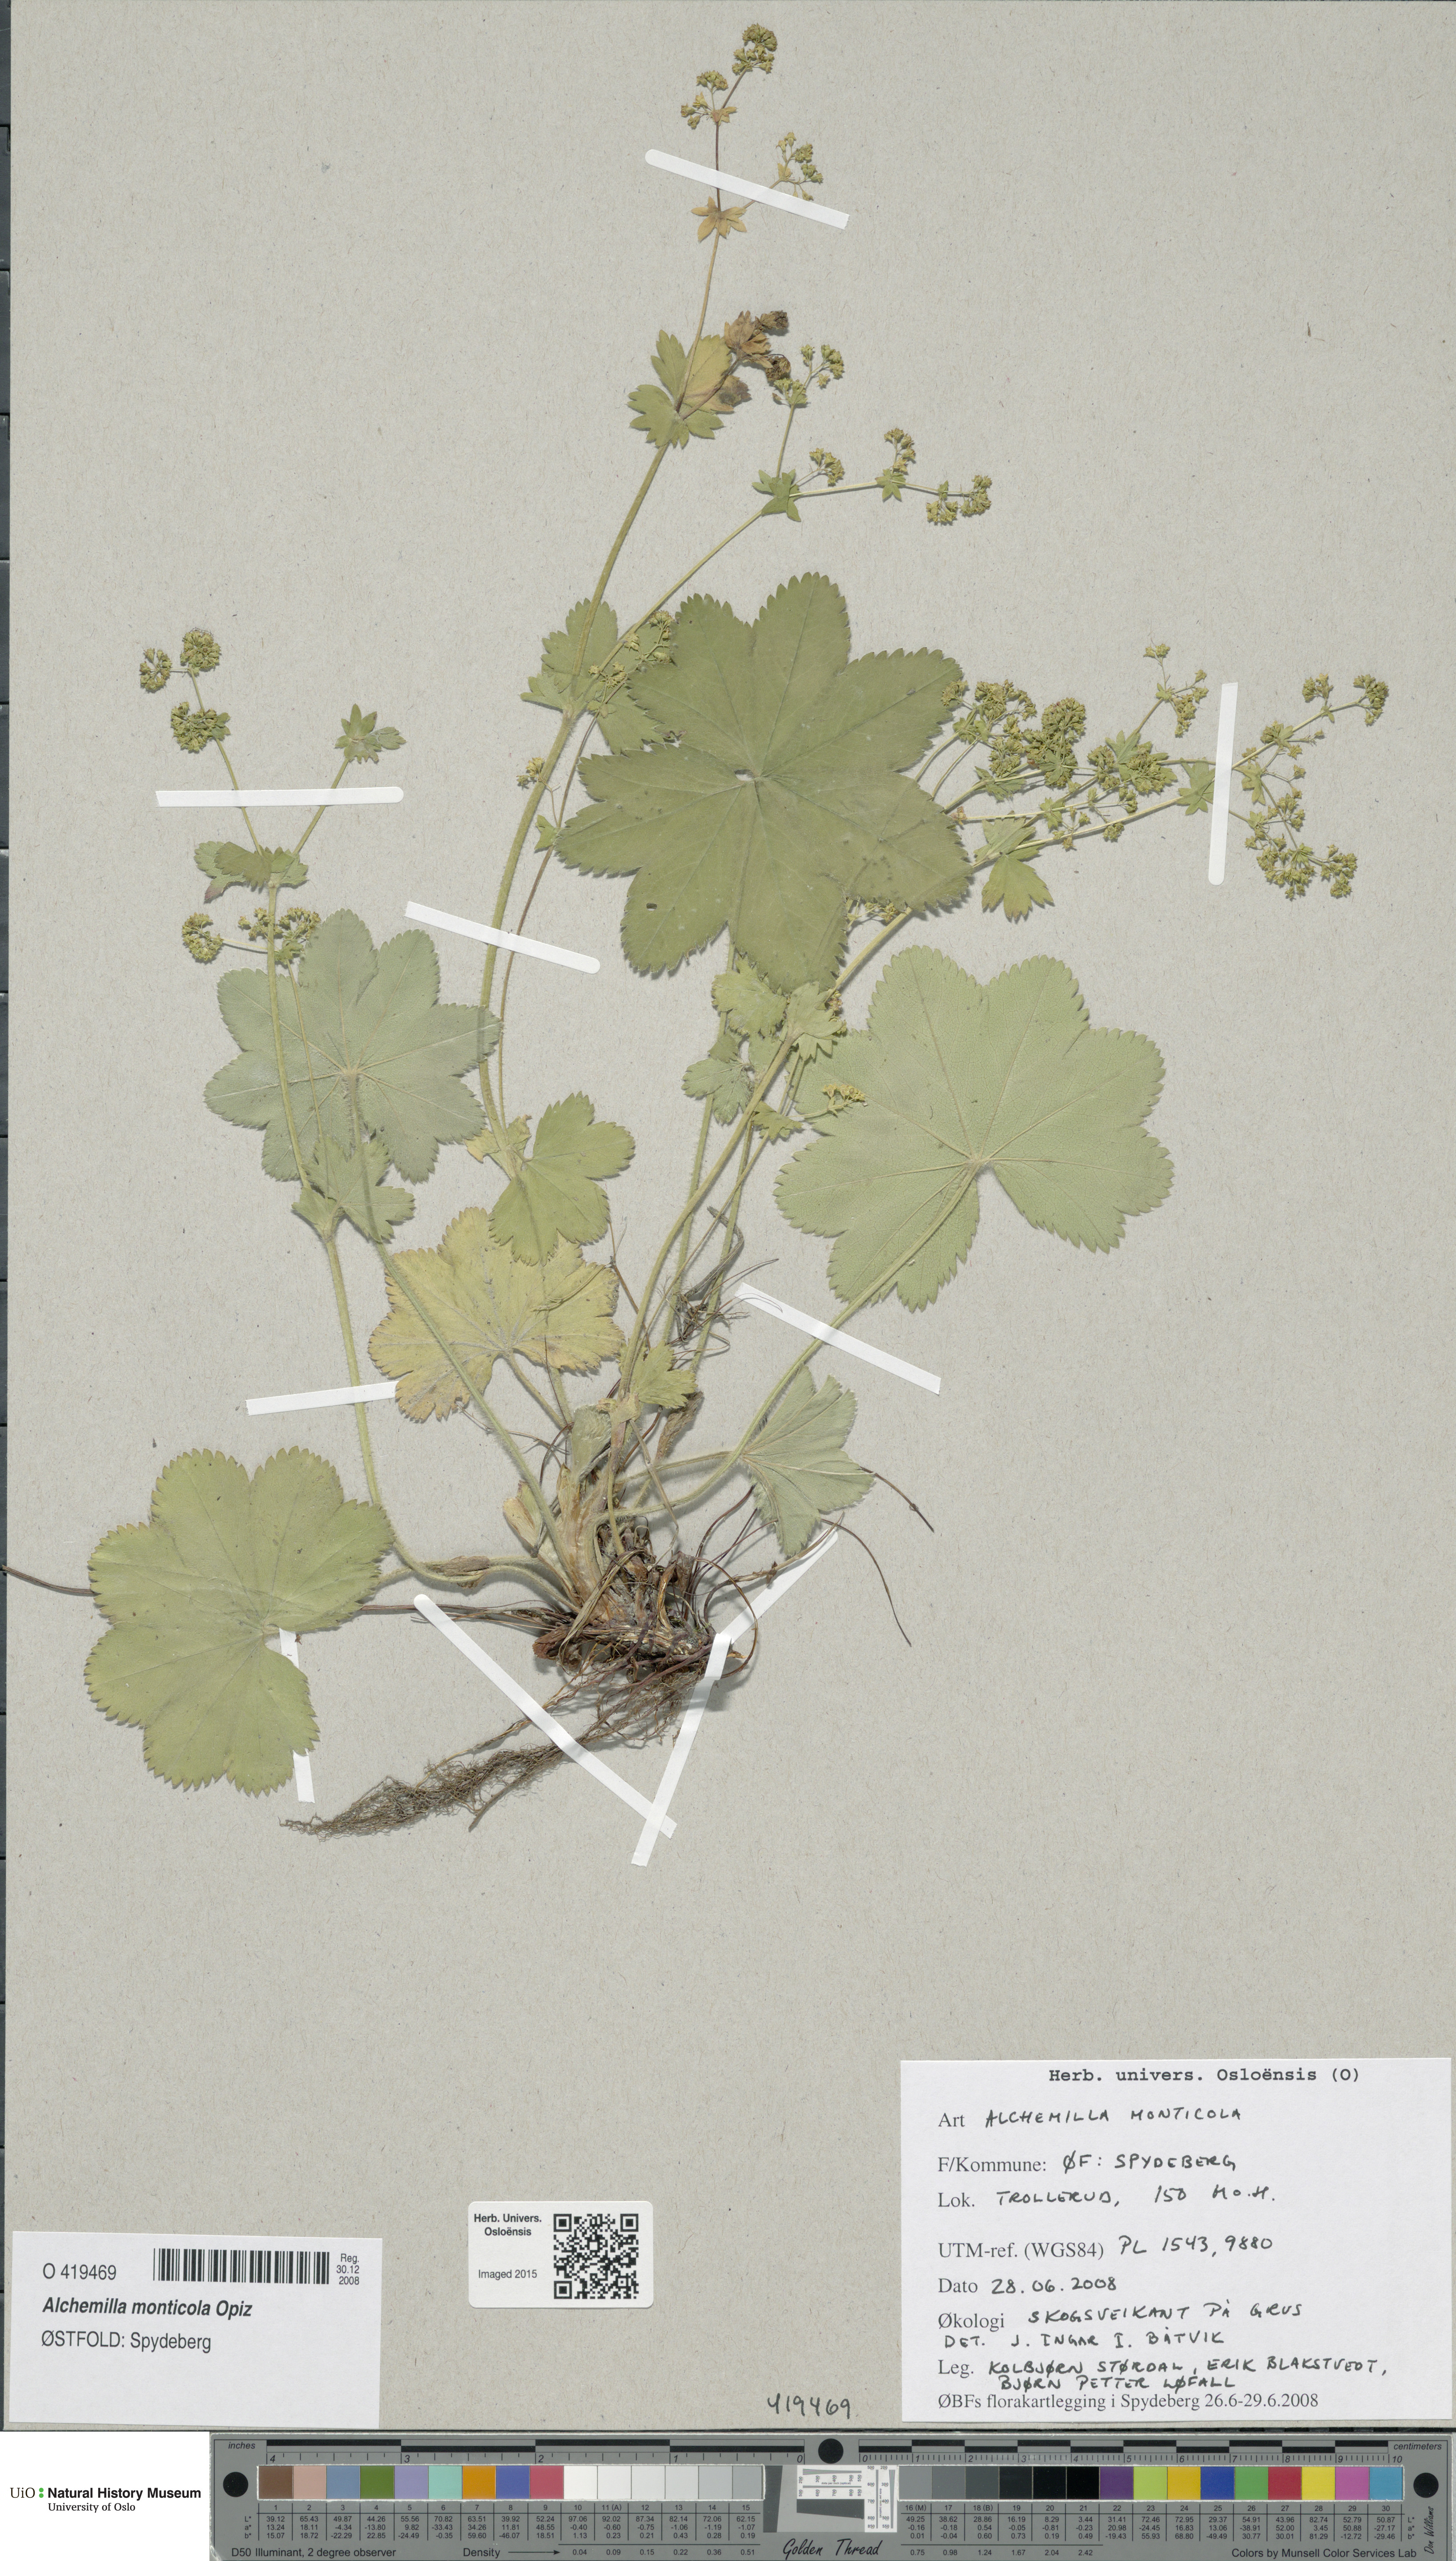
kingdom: Plantae
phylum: Tracheophyta
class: Magnoliopsida
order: Rosales
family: Rosaceae
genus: Alchemilla
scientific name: Alchemilla monticola
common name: Hairy lady's mantle
